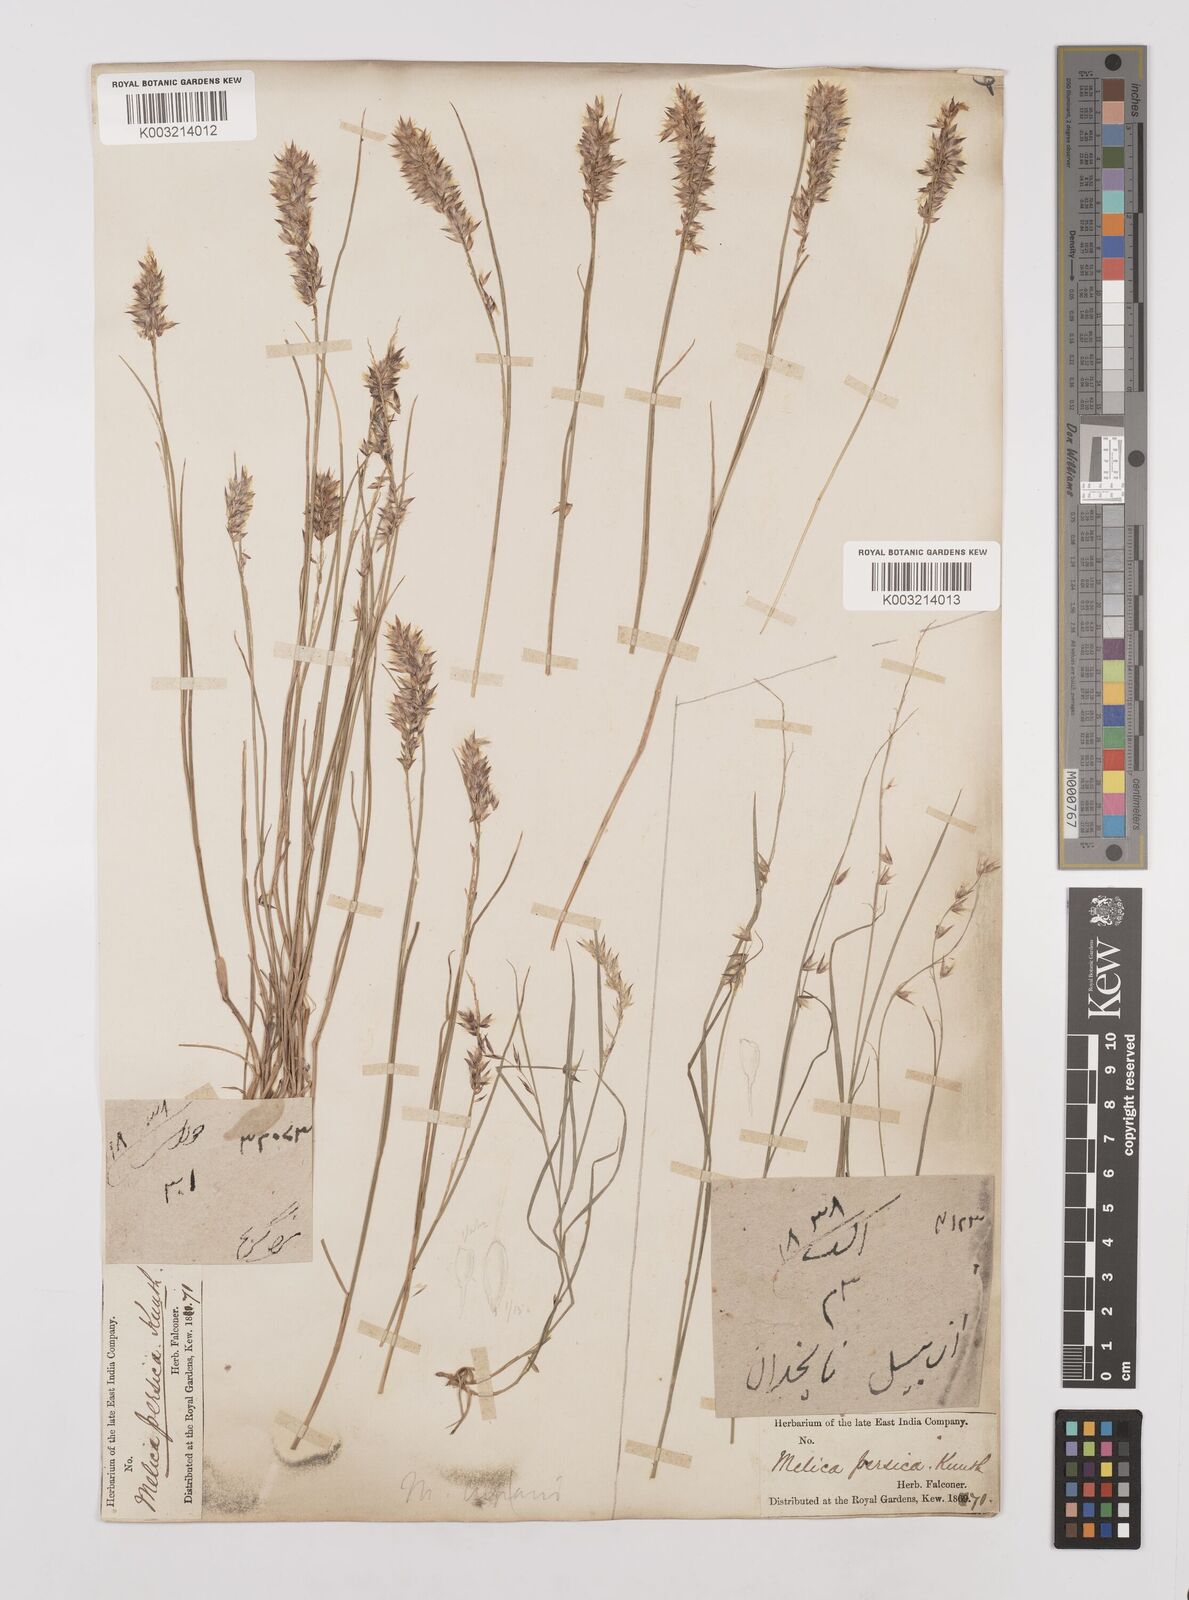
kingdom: Plantae
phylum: Tracheophyta
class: Liliopsida
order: Poales
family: Poaceae
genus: Melica
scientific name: Melica persica
